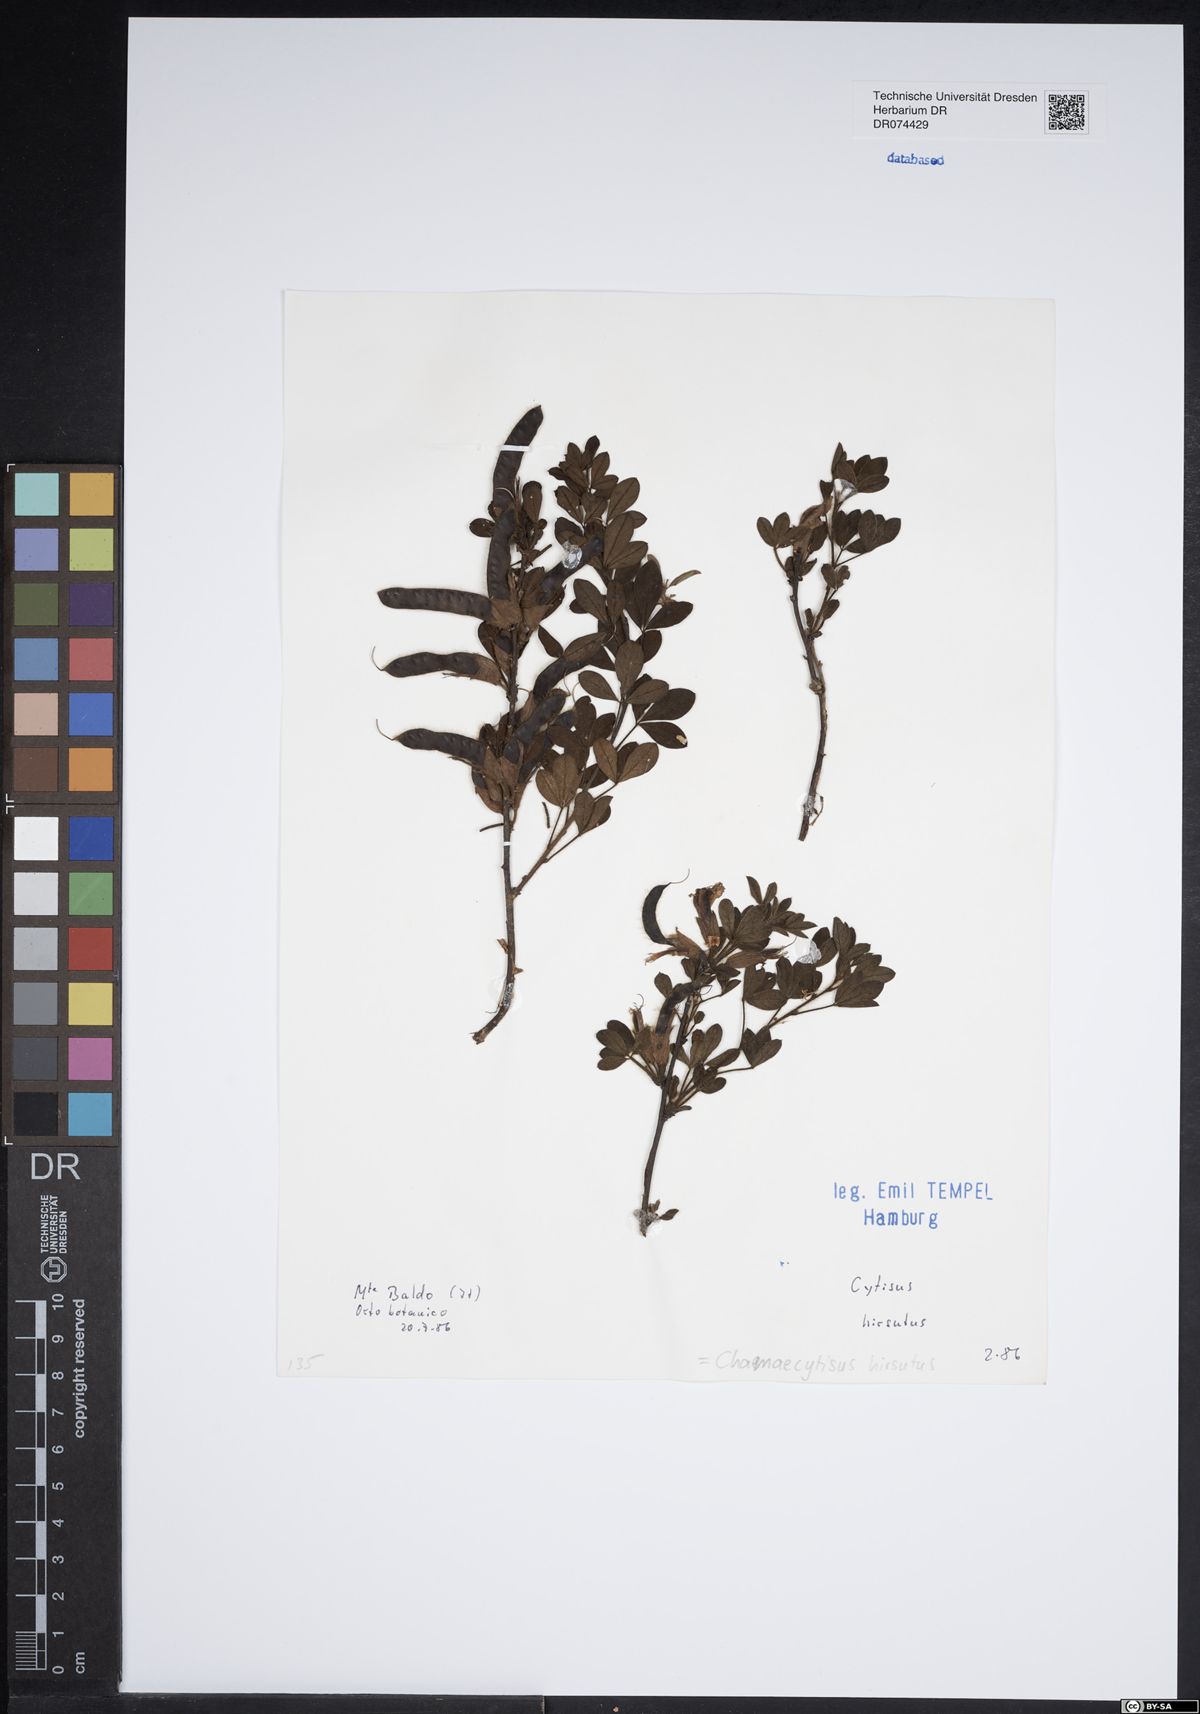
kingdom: Plantae
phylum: Tracheophyta
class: Magnoliopsida
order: Fabales
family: Fabaceae
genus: Chamaecytisus
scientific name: Chamaecytisus hirsutus
